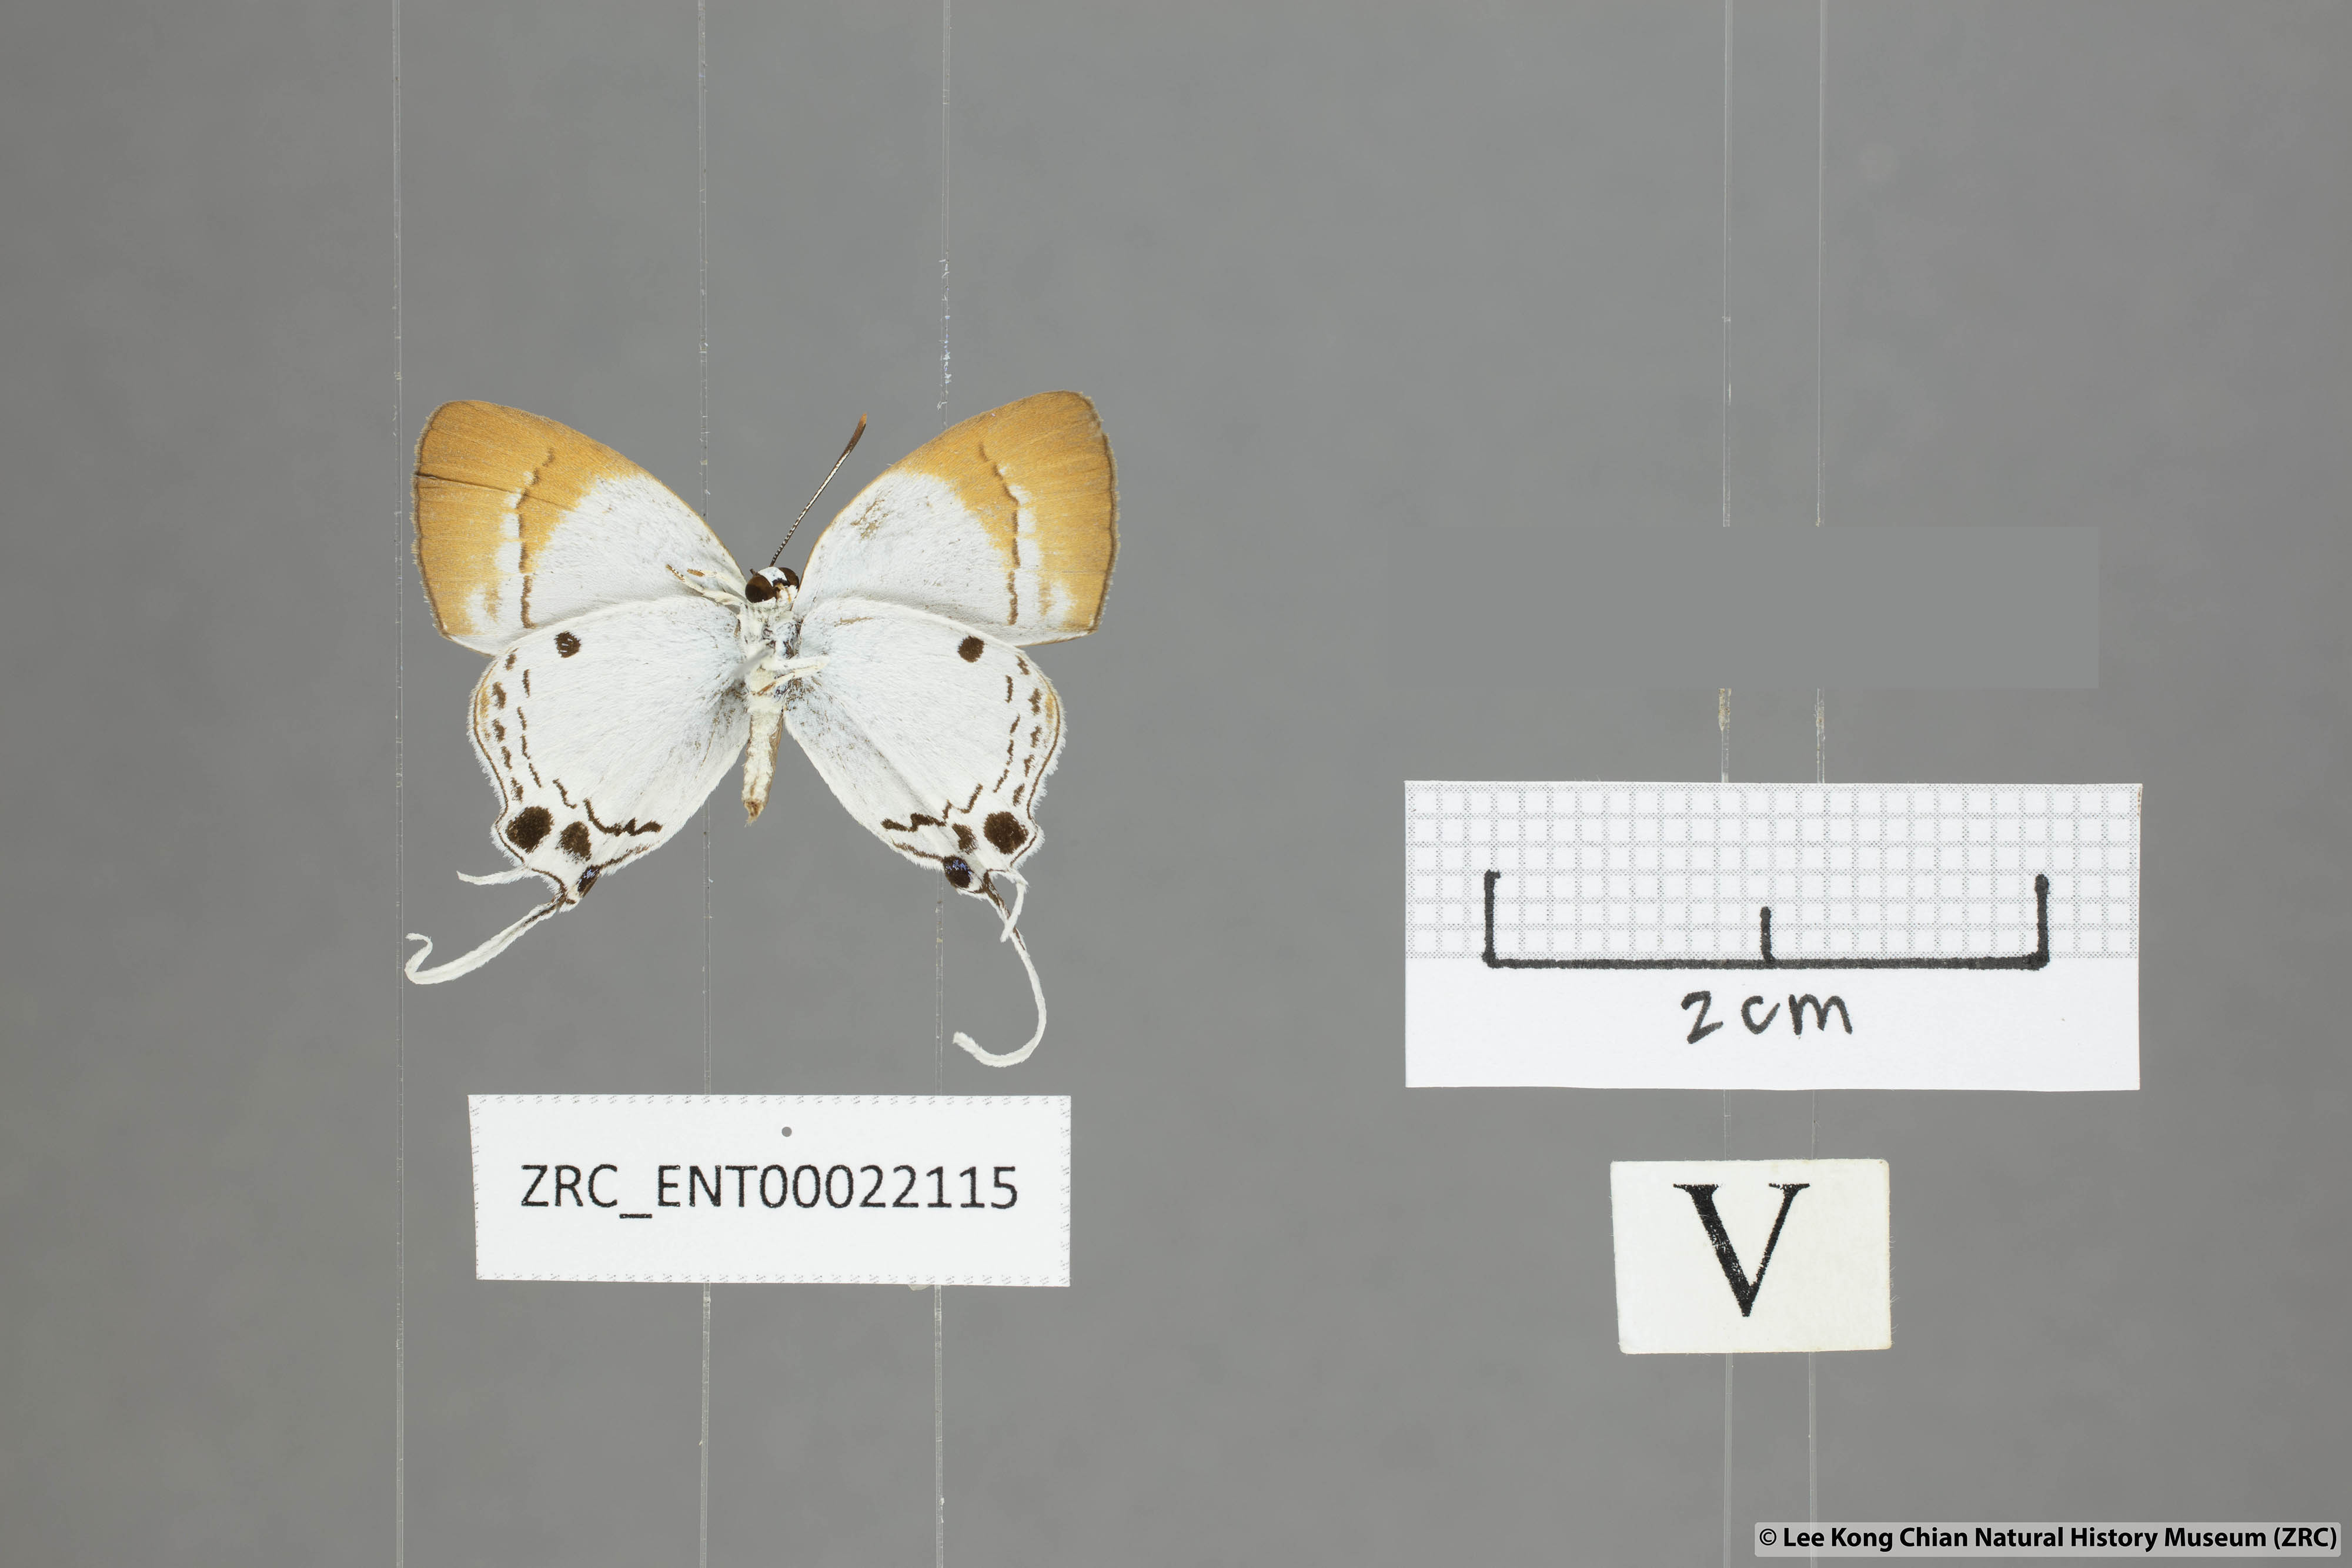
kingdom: Animalia
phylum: Arthropoda
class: Insecta
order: Lepidoptera
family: Lycaenidae
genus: Suasa
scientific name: Suasa lisides
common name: Red imperial
